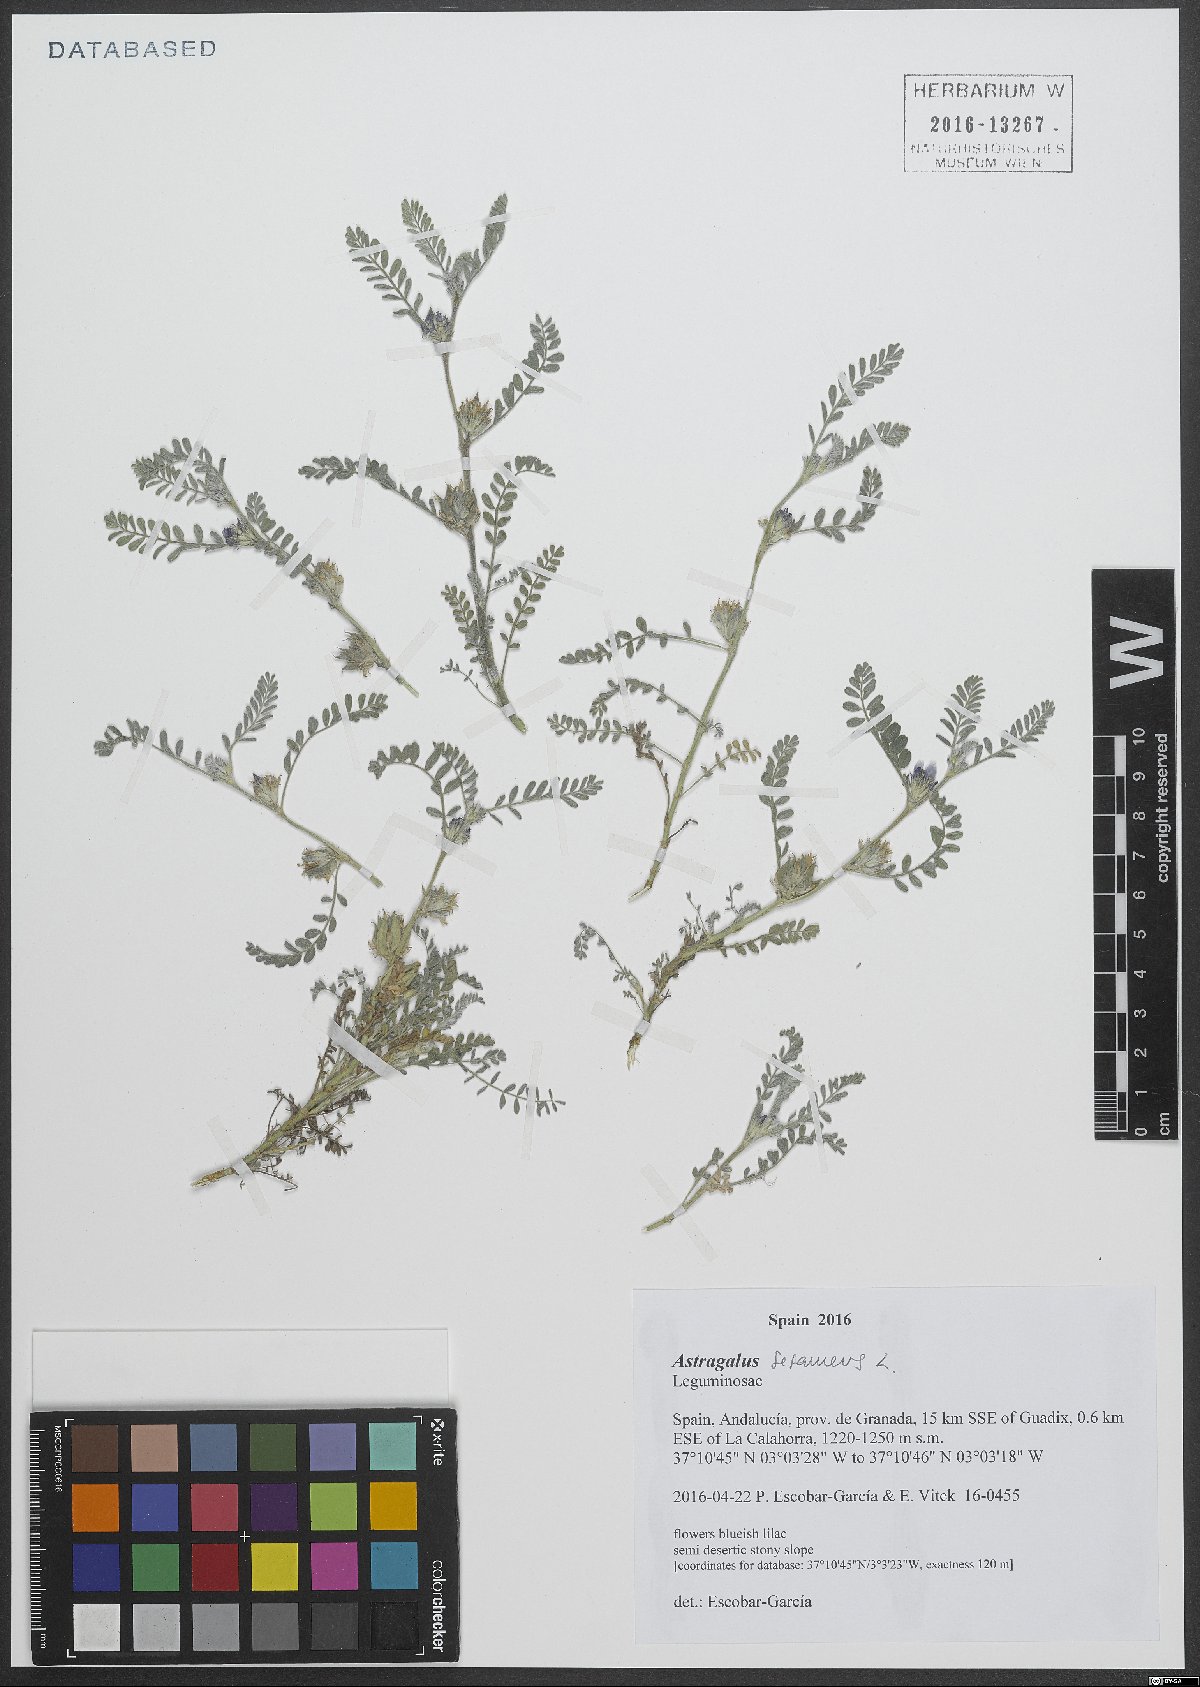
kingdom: Plantae
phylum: Tracheophyta
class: Magnoliopsida
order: Fabales
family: Fabaceae
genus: Astragalus
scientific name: Astragalus sesameus
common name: Purple milk-vetch
